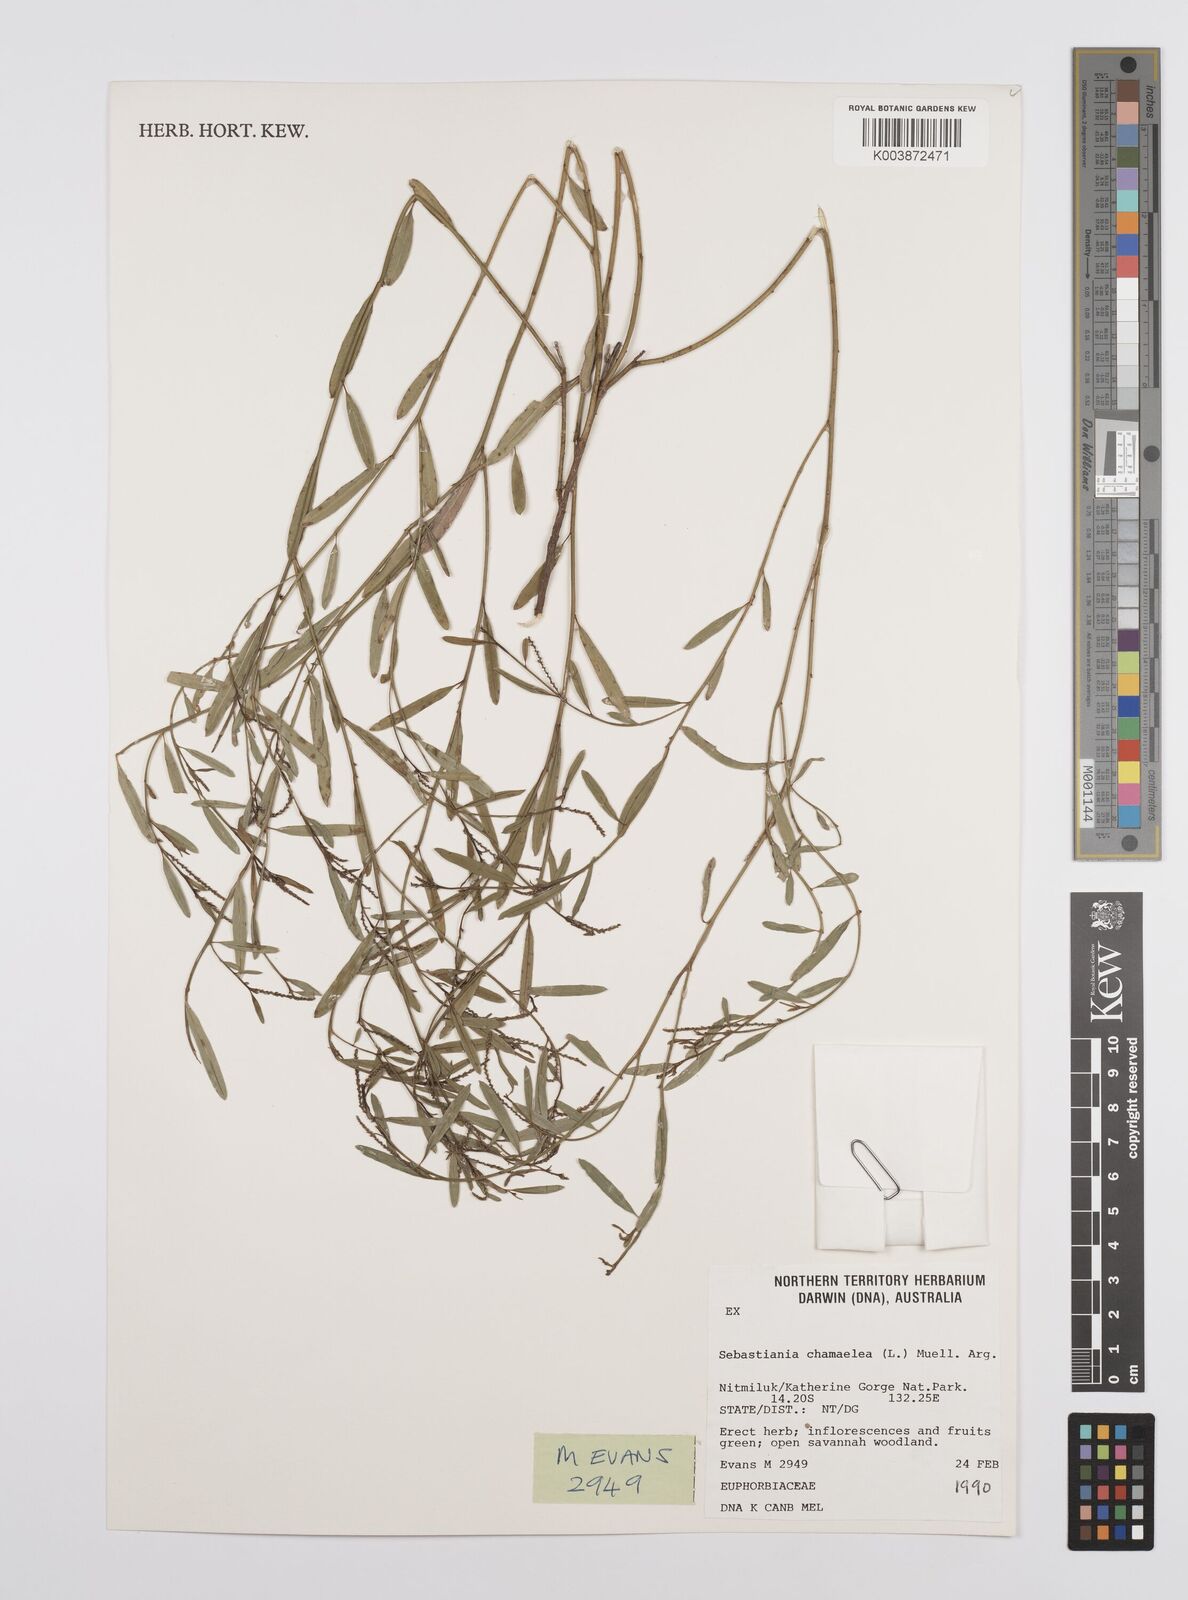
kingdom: Plantae
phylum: Tracheophyta
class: Magnoliopsida
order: Malpighiales
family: Euphorbiaceae
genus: Microstachys
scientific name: Microstachys chamaelea
